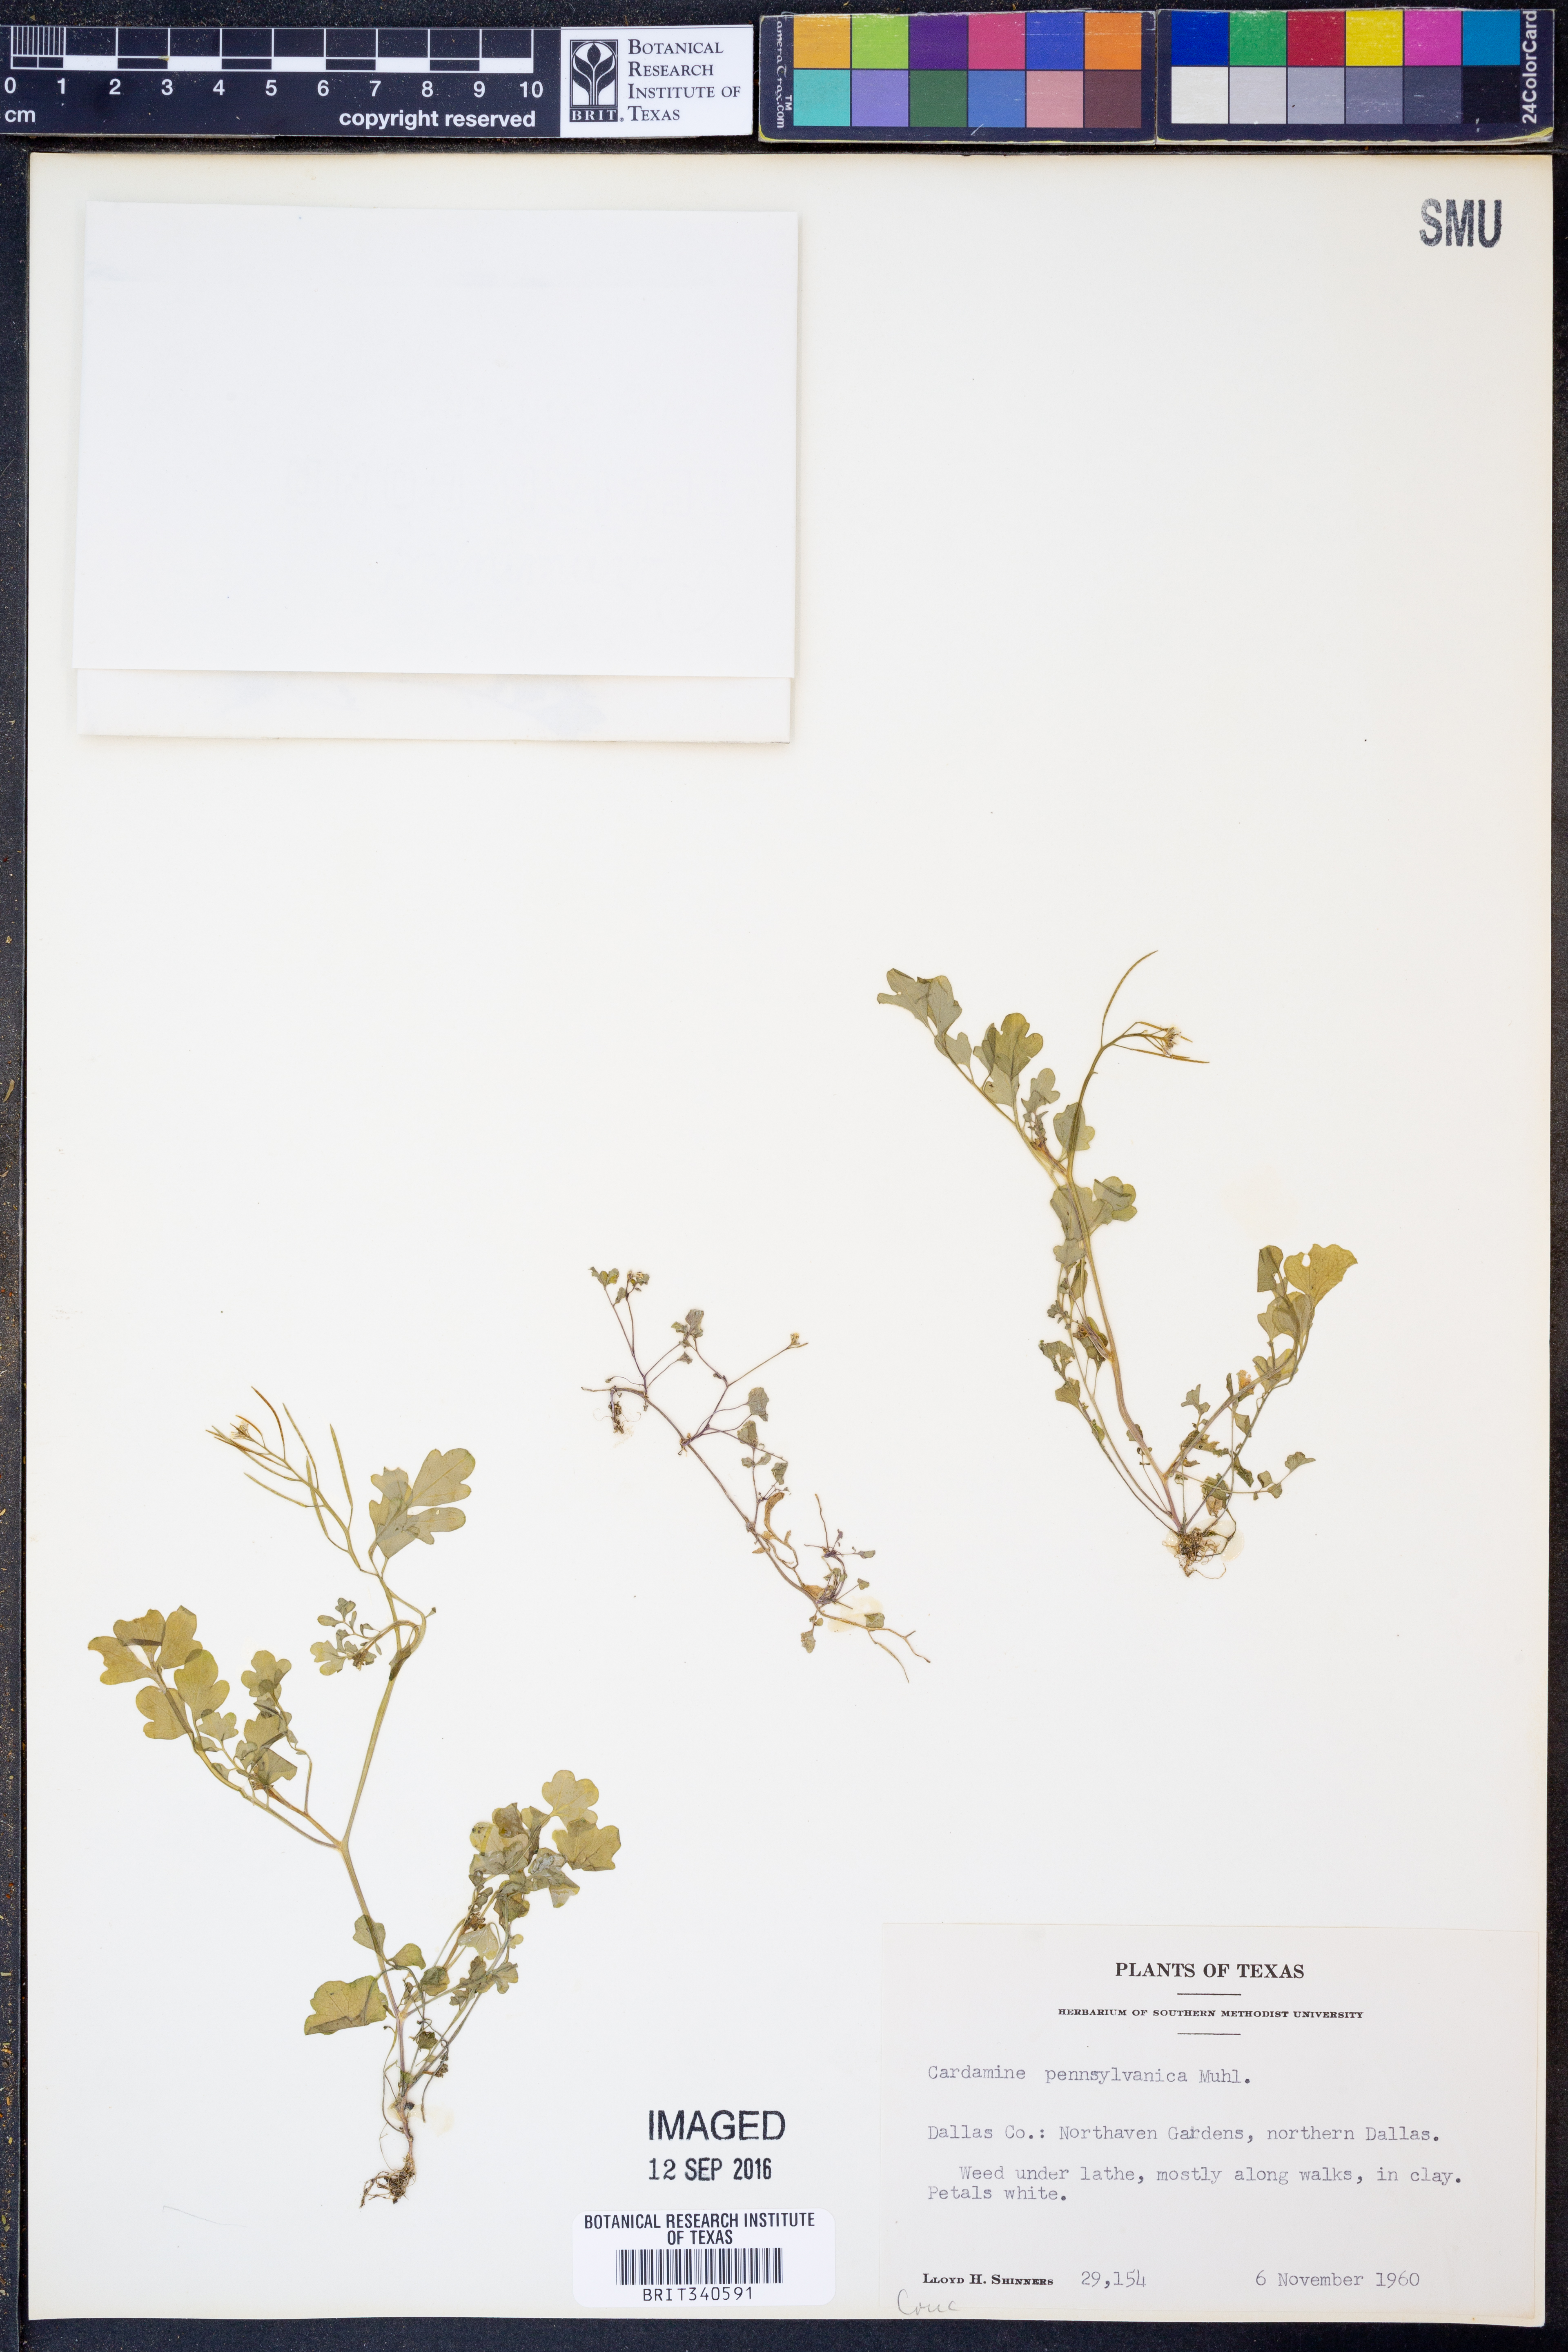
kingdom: Plantae
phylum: Tracheophyta
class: Magnoliopsida
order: Brassicales
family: Brassicaceae
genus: Cardamine
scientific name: Cardamine pensylvanica
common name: Pennsylvania bittercress
